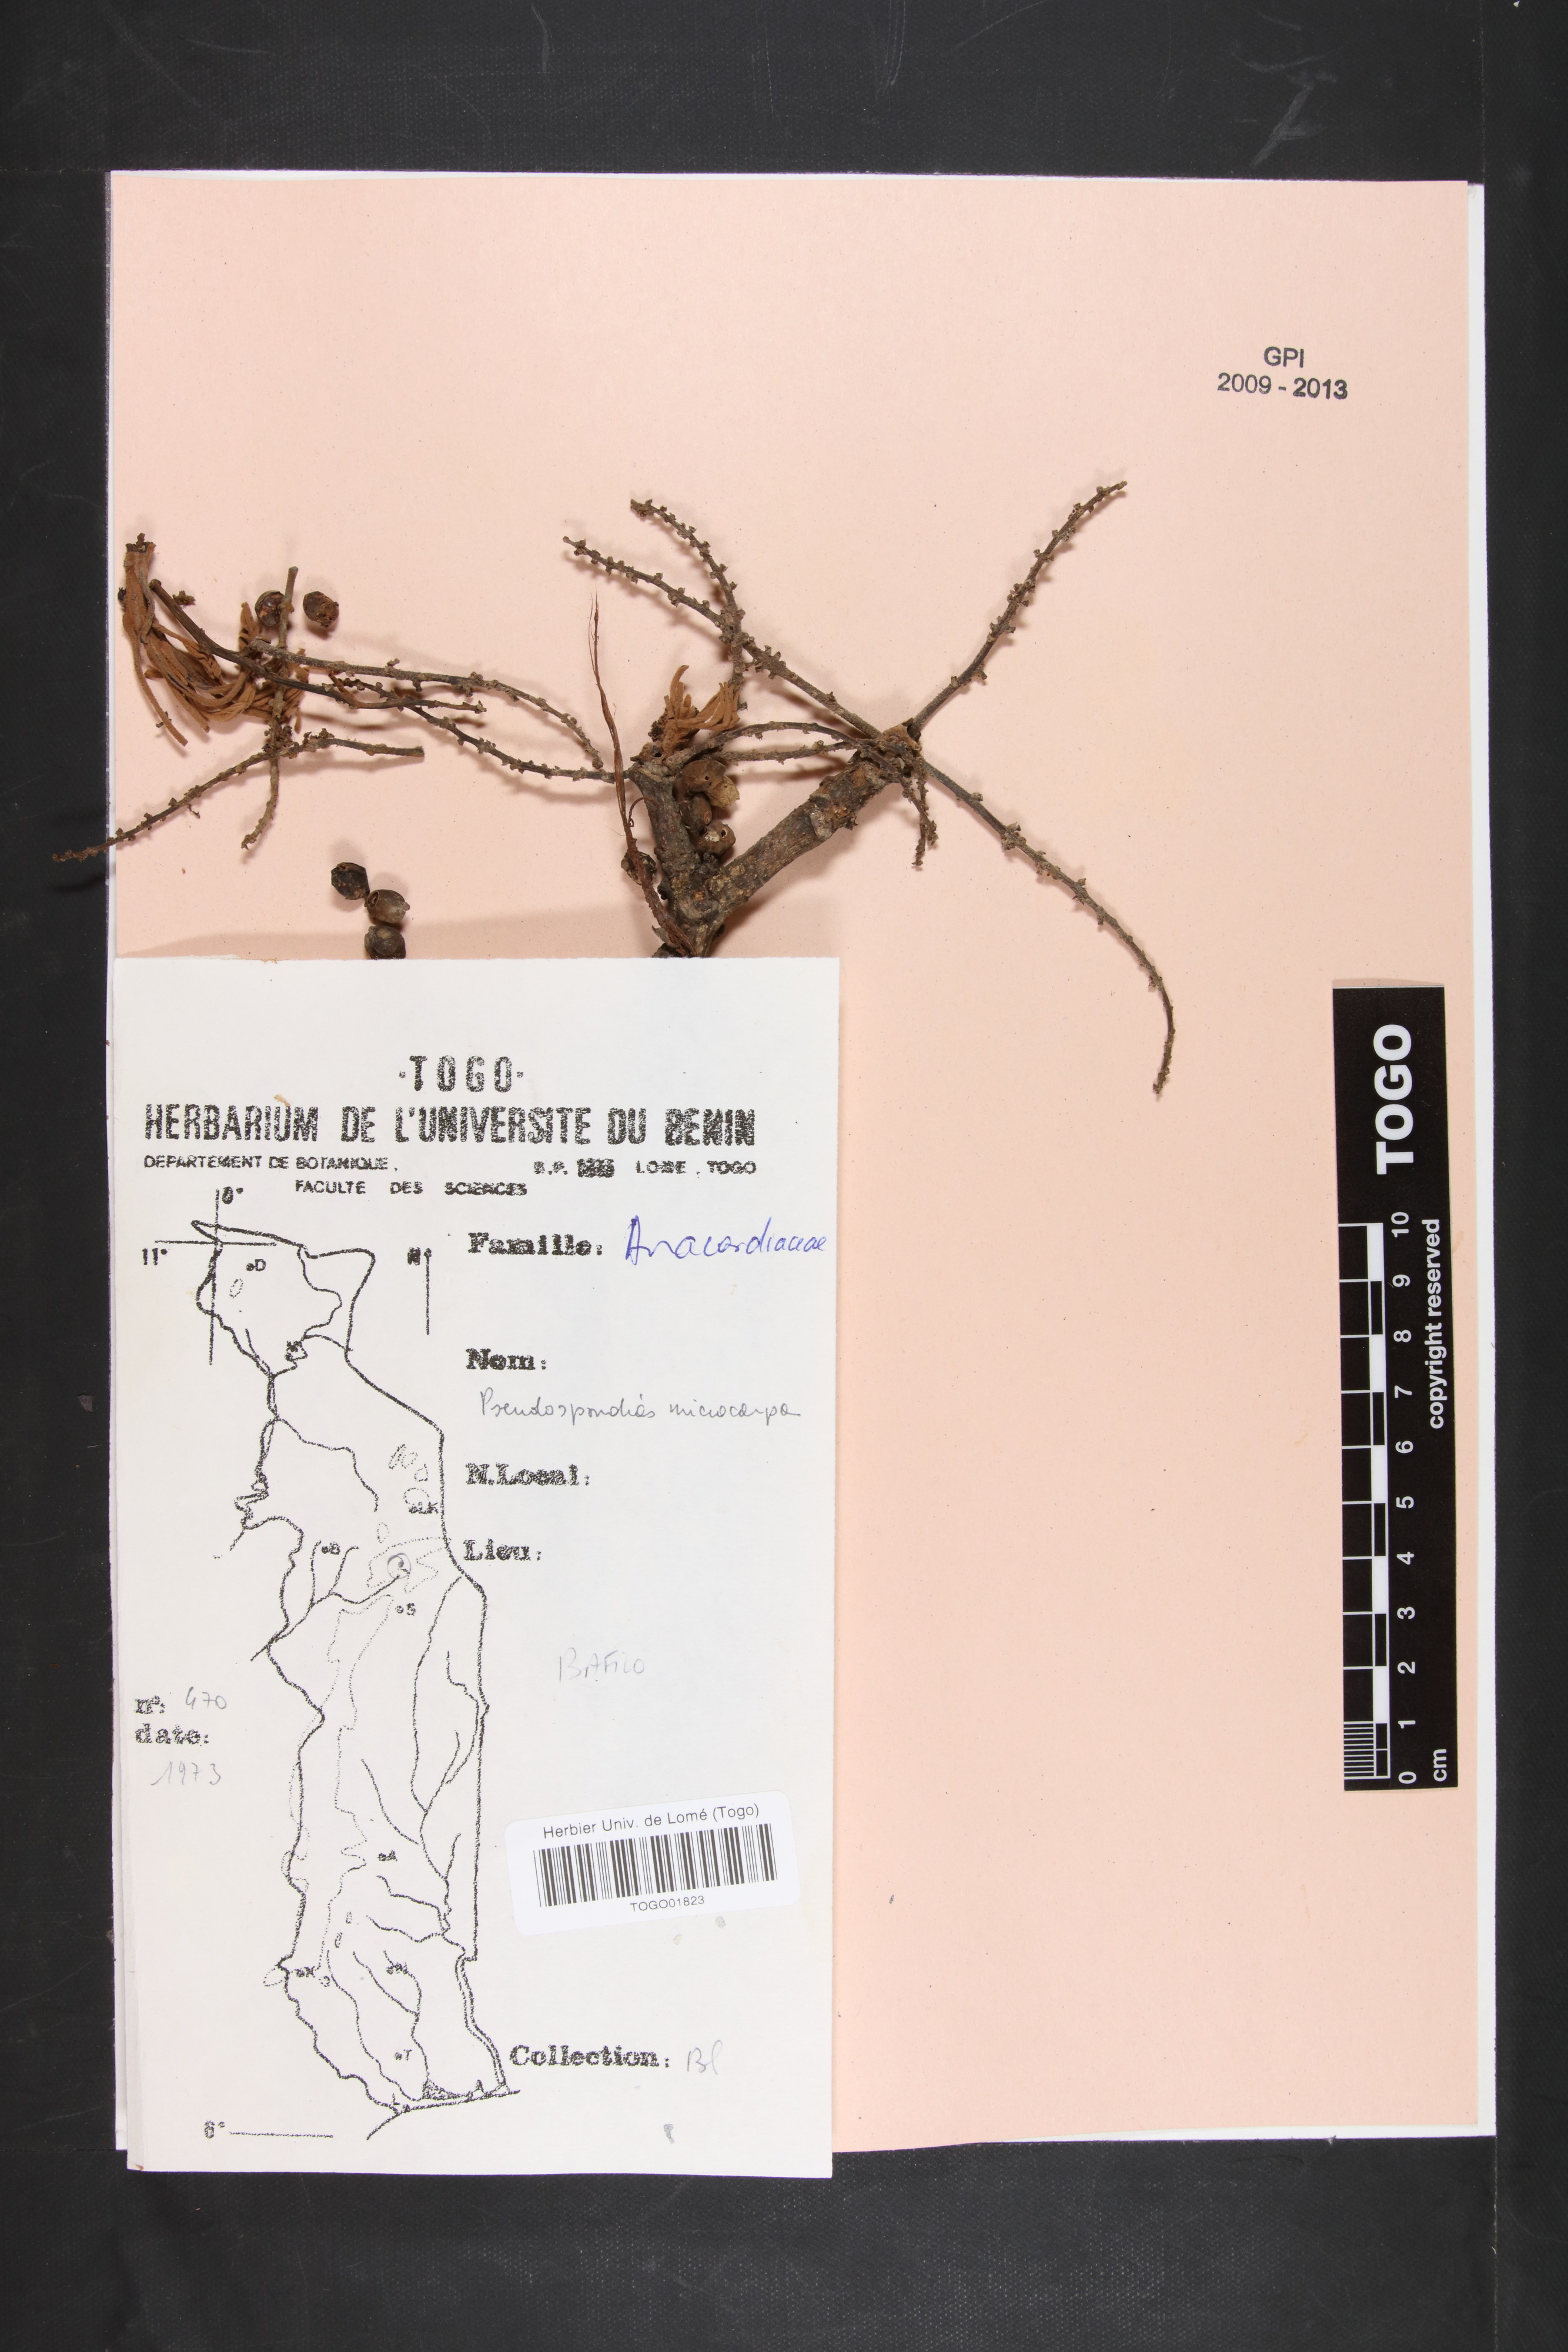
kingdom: Plantae
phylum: Tracheophyta
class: Magnoliopsida
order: Sapindales
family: Anacardiaceae
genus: Pseudospondias
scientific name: Pseudospondias microcarpa
